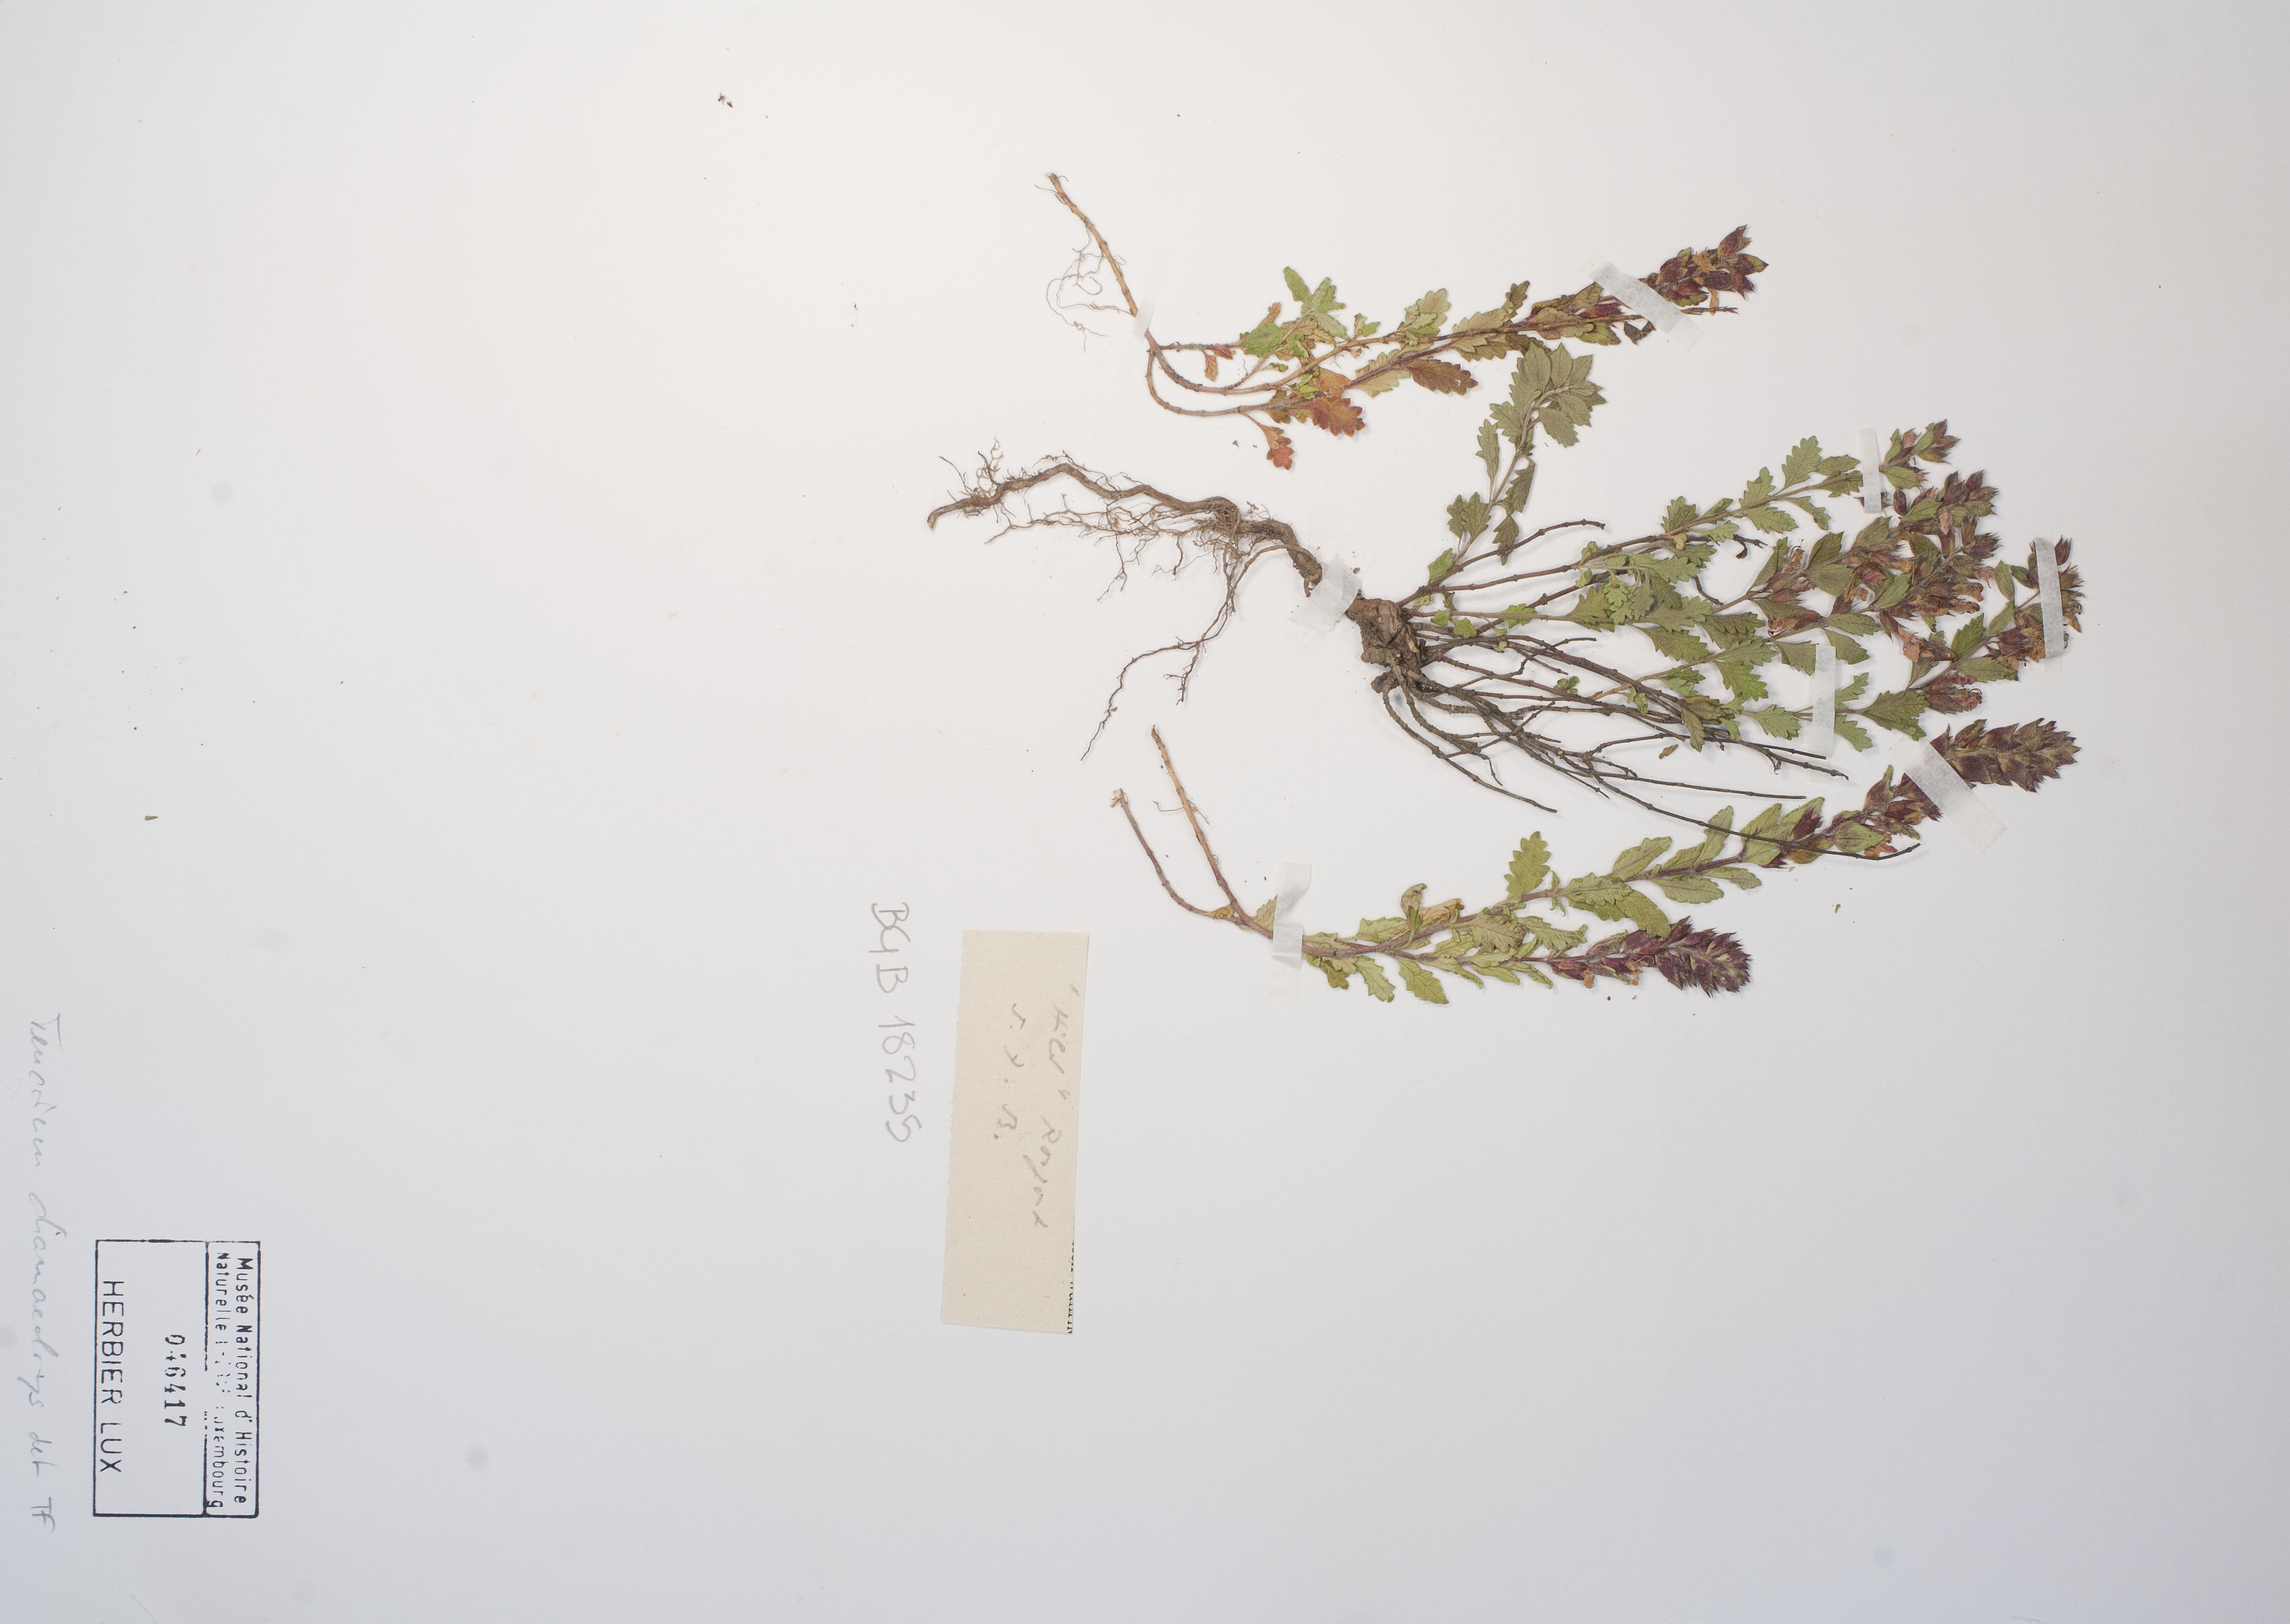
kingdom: Plantae
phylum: Tracheophyta
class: Magnoliopsida
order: Lamiales
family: Lamiaceae
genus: Teucrium
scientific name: Teucrium chamaedrys
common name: Wall germander
